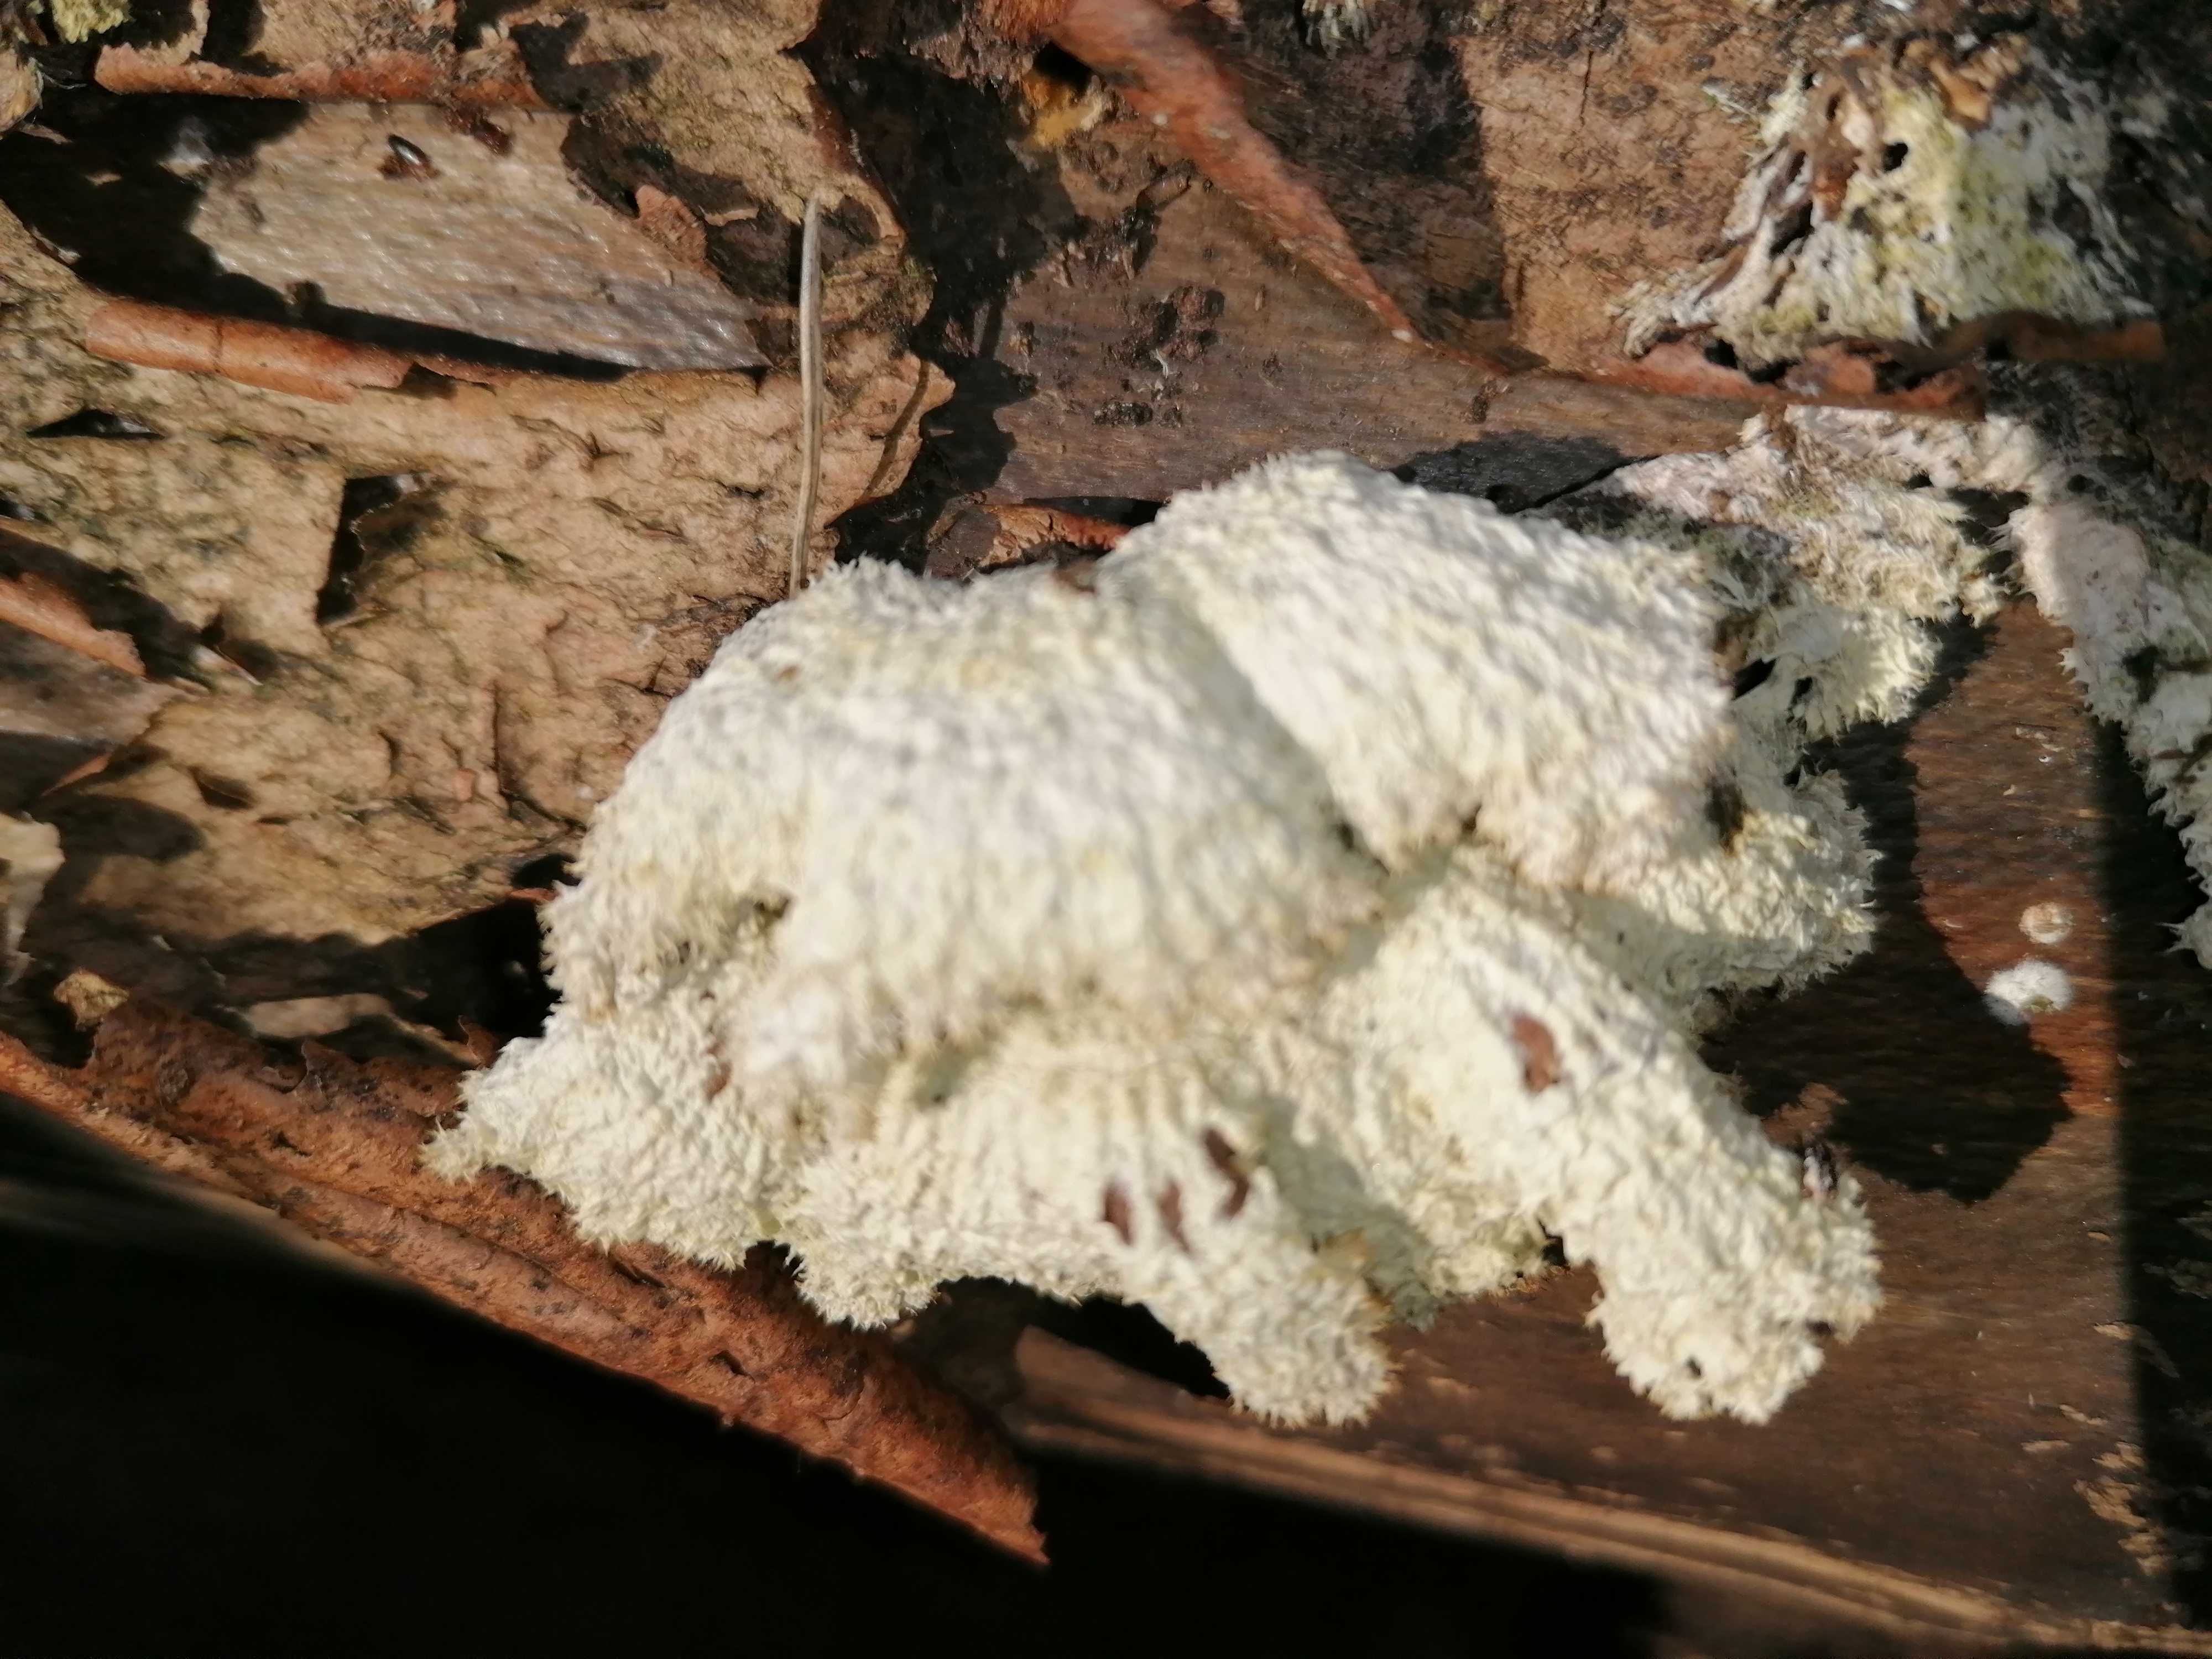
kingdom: Fungi
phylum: Basidiomycota
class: Agaricomycetes
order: Agaricales
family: Schizophyllaceae
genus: Schizophyllum
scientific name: Schizophyllum commune
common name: kløvblad
